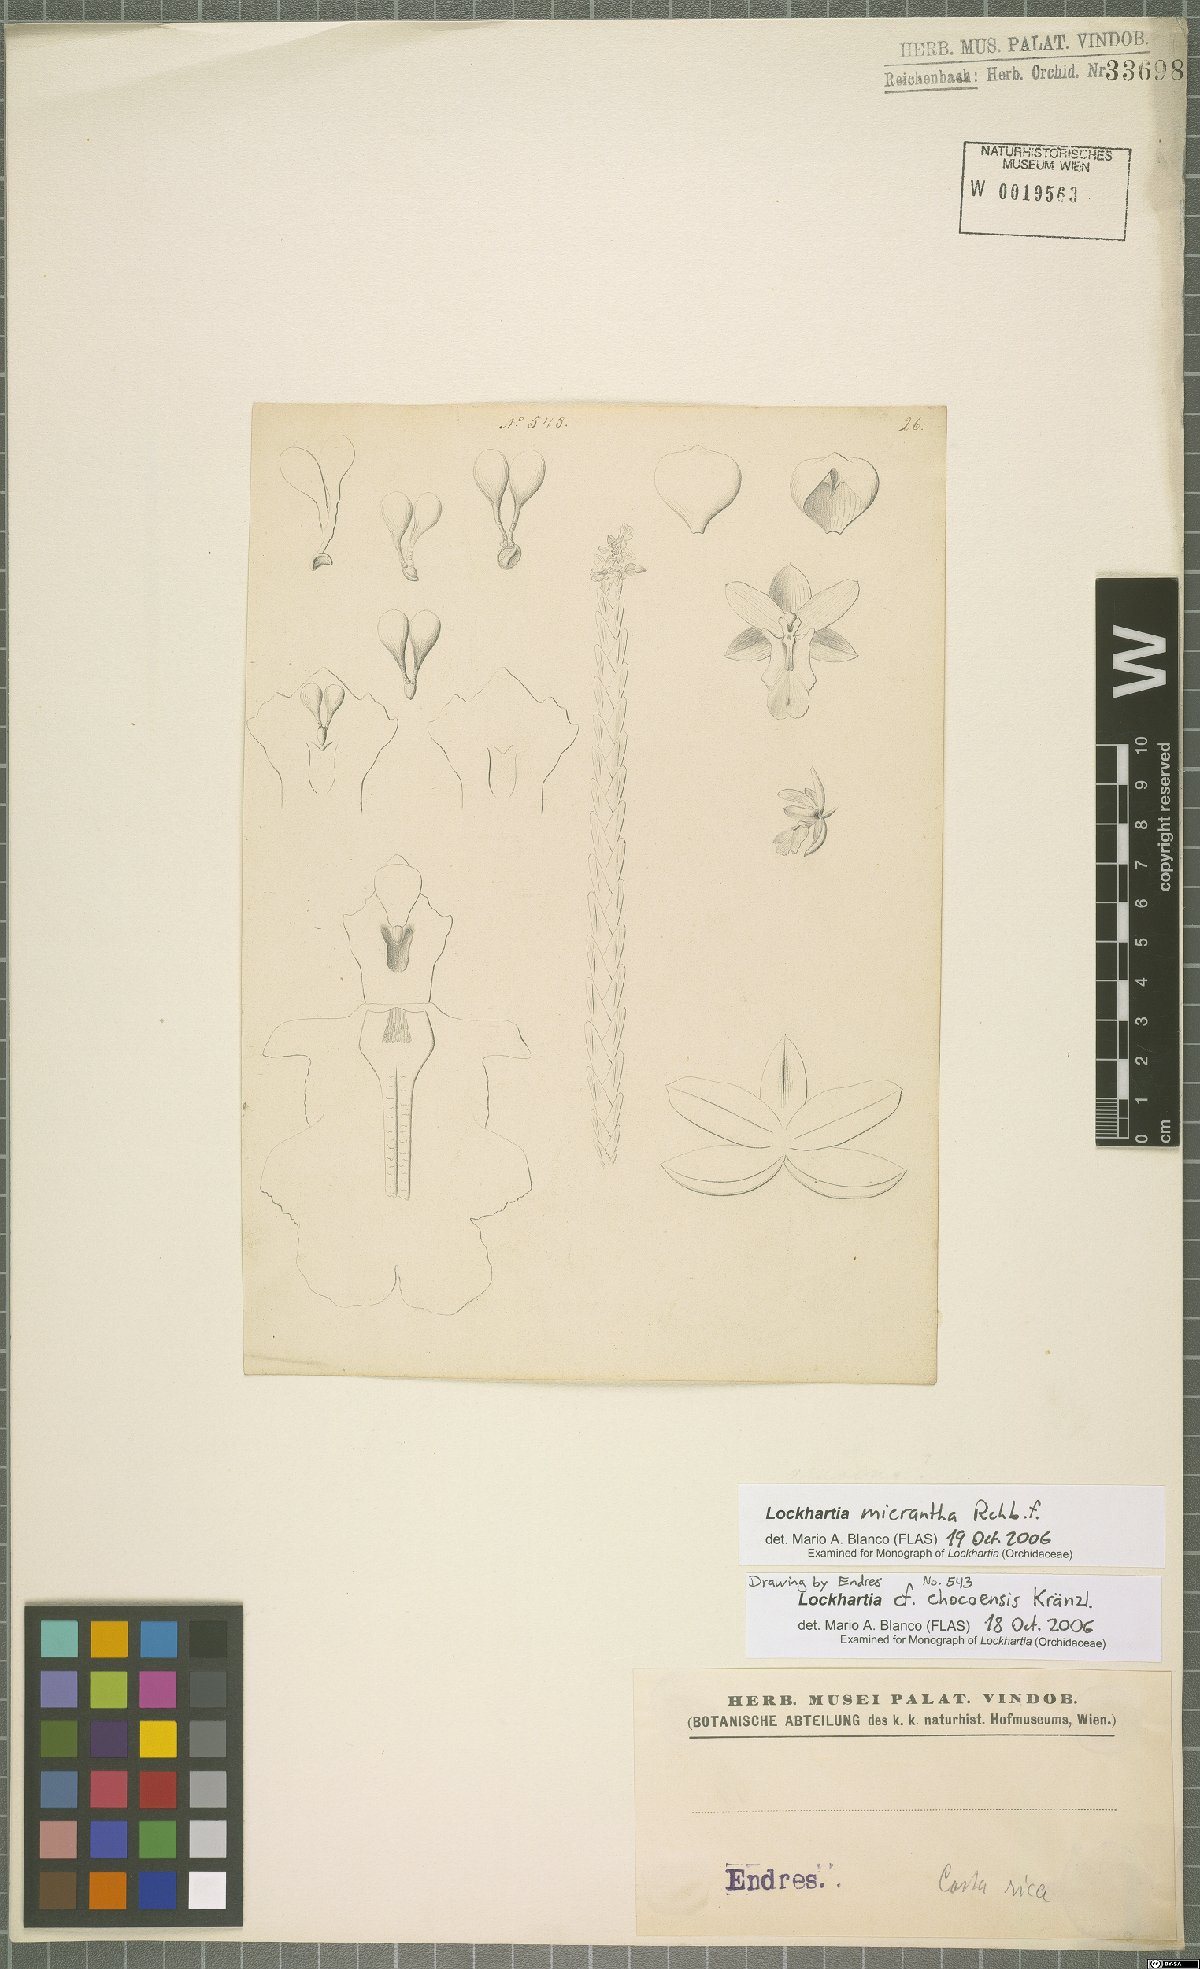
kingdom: Plantae
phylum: Tracheophyta
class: Liliopsida
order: Asparagales
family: Orchidaceae
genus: Lockhartia
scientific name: Lockhartia micrantha
